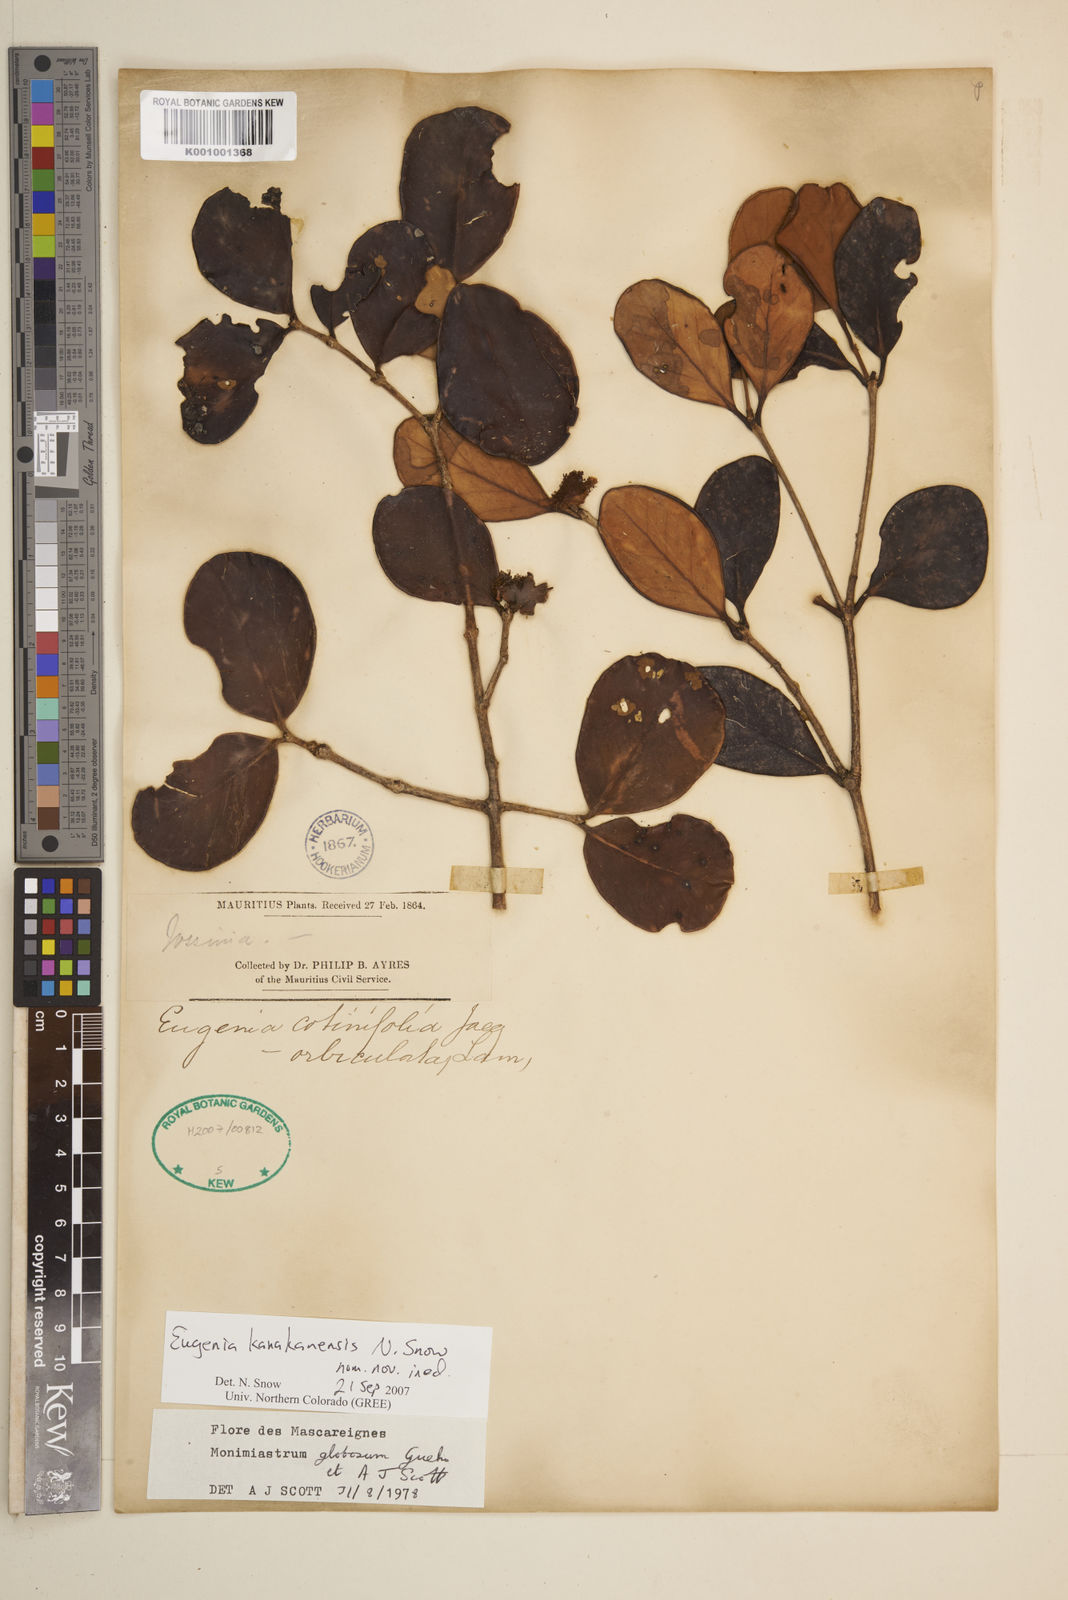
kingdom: Plantae
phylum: Tracheophyta
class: Magnoliopsida
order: Myrtales
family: Myrtaceae
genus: Eugenia
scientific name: Eugenia kanakana
